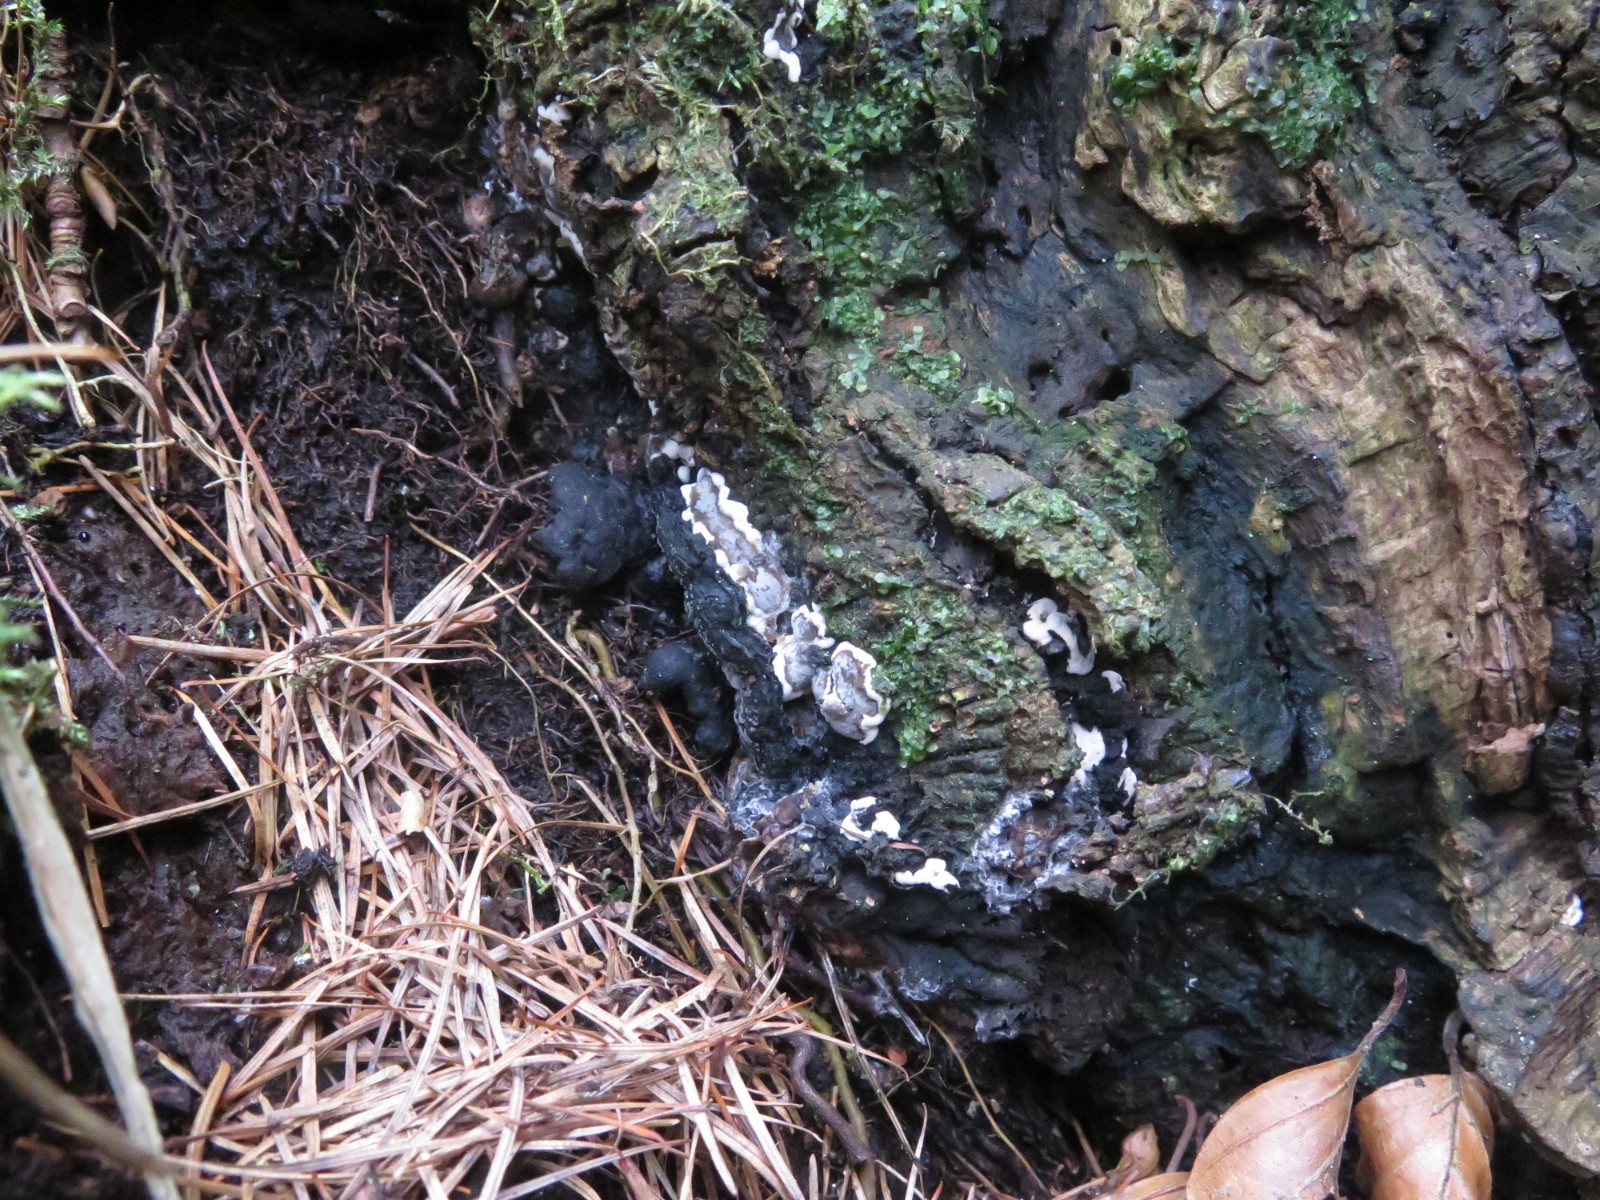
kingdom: Fungi
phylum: Ascomycota
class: Sordariomycetes
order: Xylariales
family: Xylariaceae
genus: Kretzschmaria
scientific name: Kretzschmaria deusta
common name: stor kulsvamp
